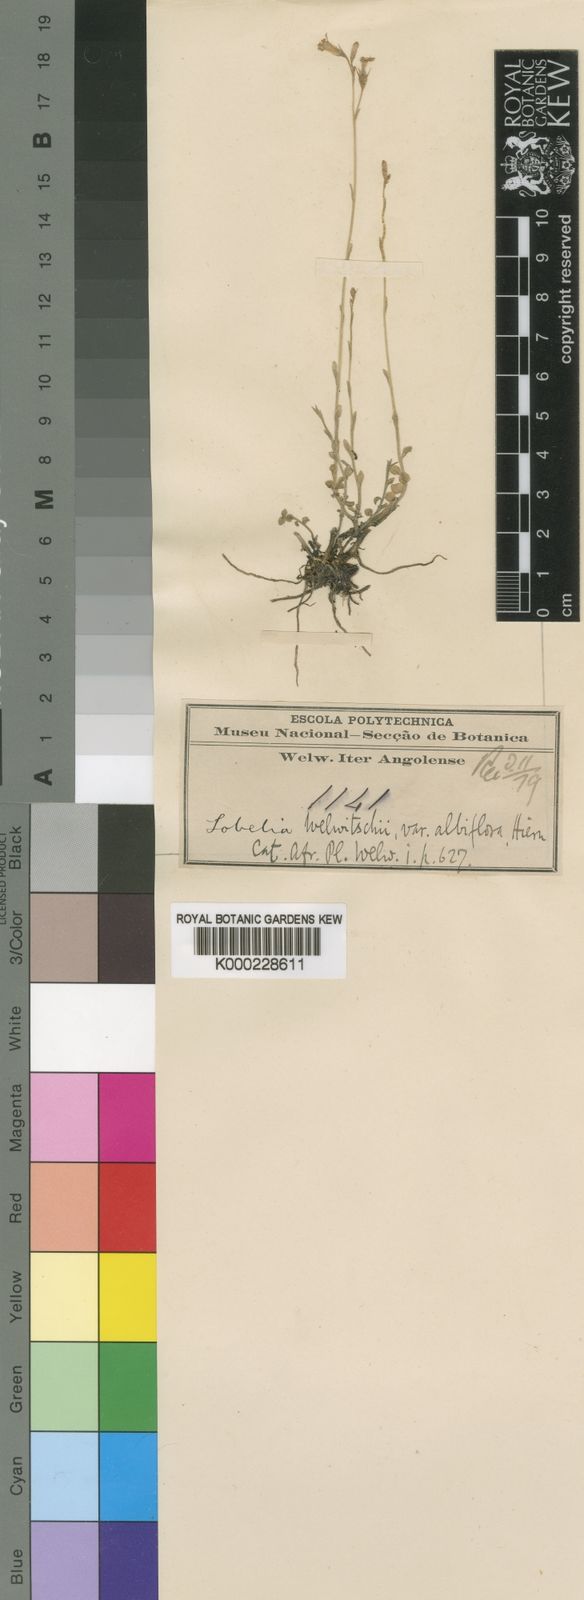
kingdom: Plantae
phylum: Tracheophyta
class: Magnoliopsida
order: Asterales
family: Campanulaceae
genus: Lobelia
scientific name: Lobelia welwitschii
